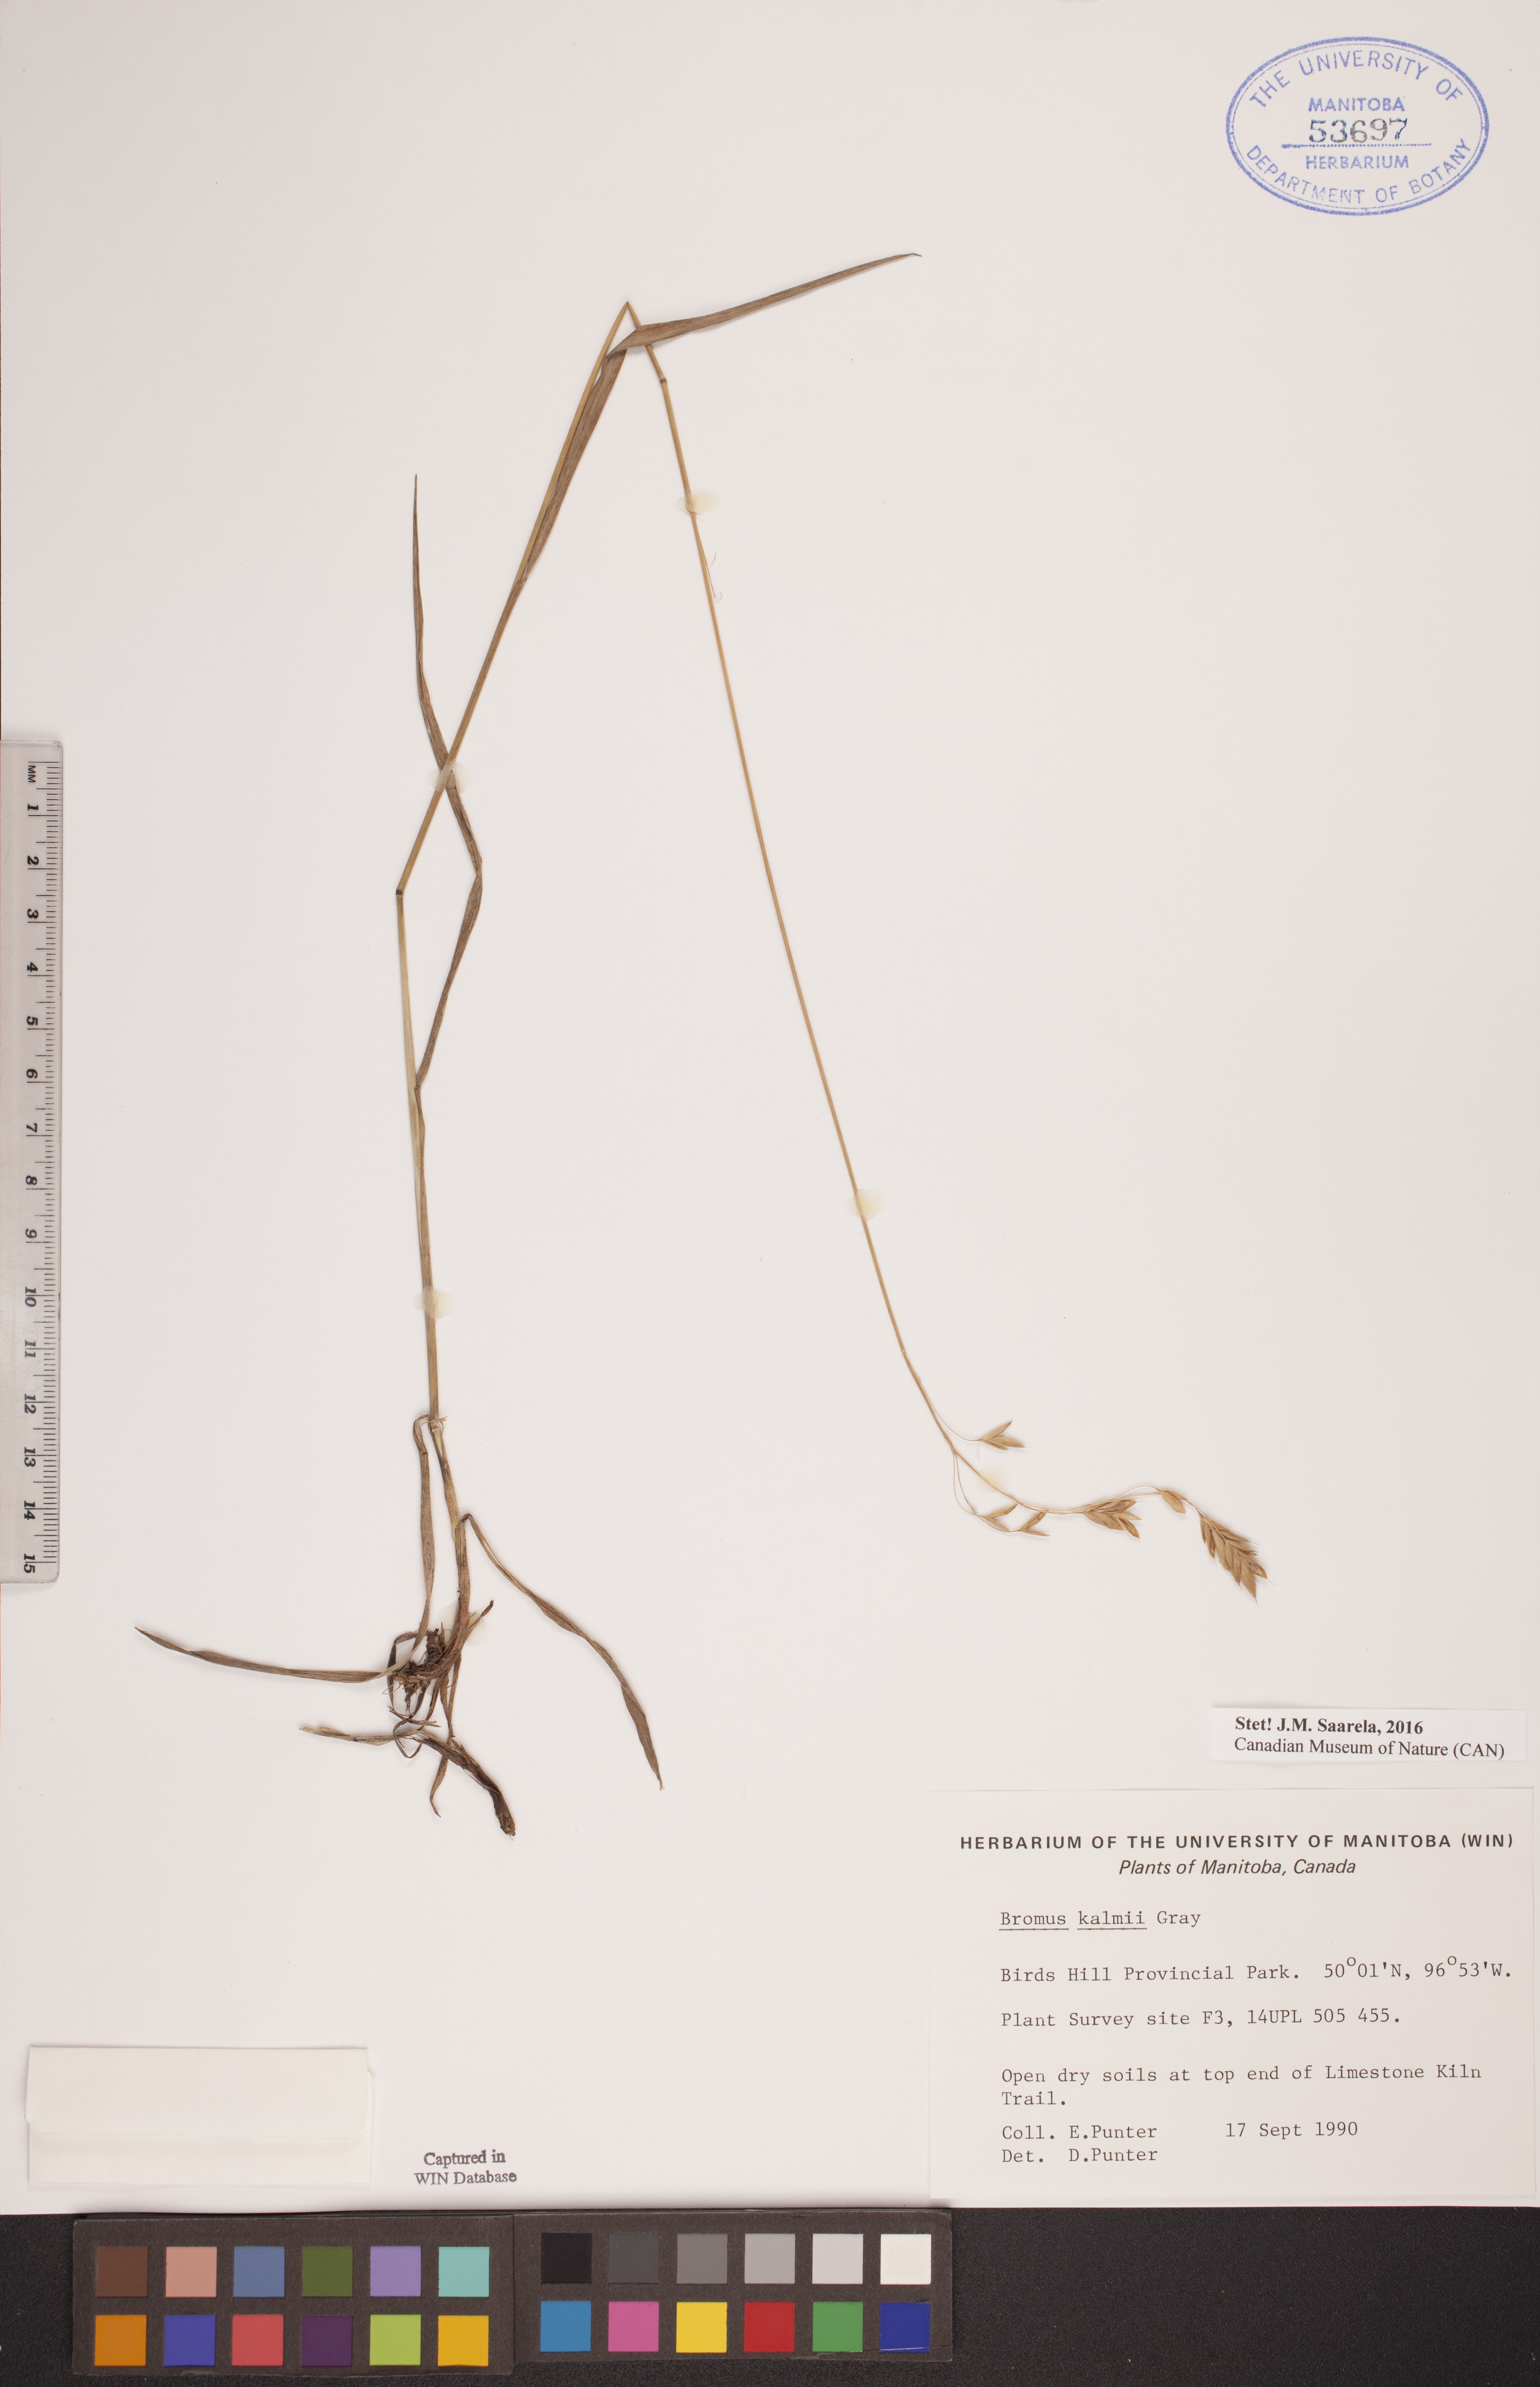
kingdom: Plantae
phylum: Tracheophyta
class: Liliopsida
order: Poales
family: Poaceae
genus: Bromus
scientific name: Bromus kalmii
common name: Kalm brome
